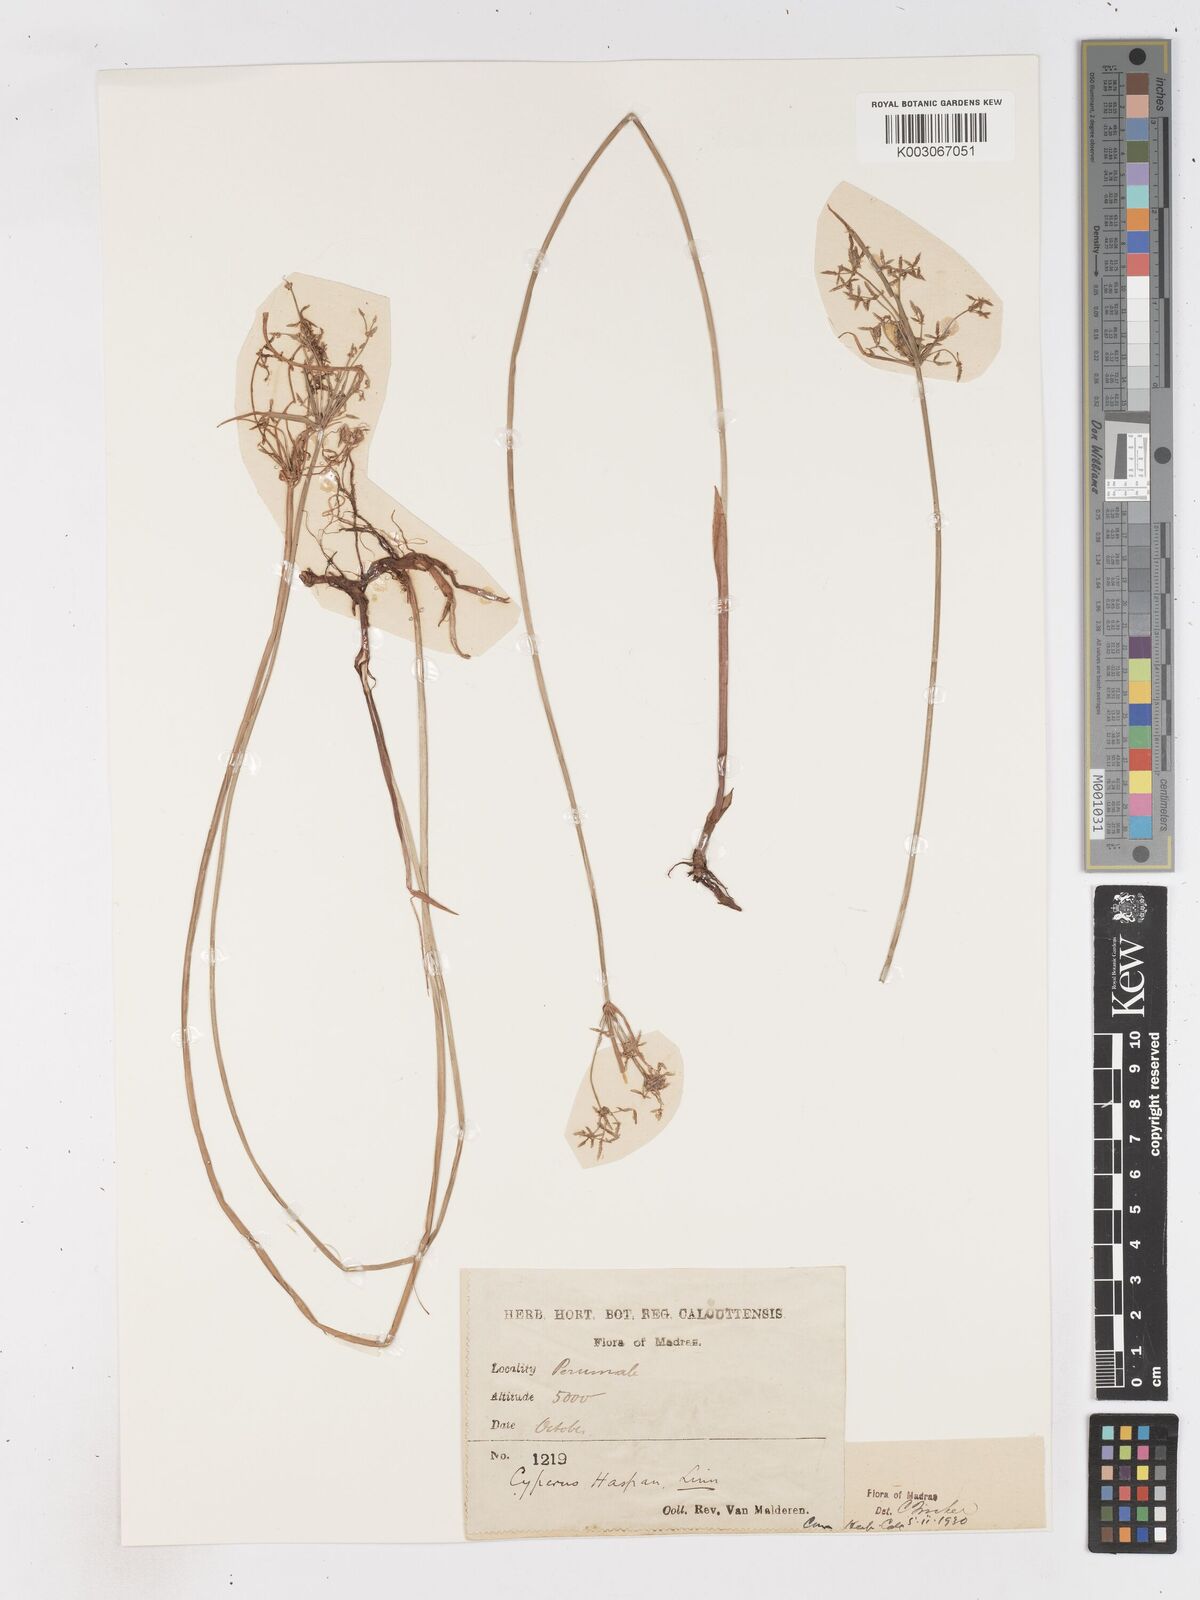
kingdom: Plantae
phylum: Tracheophyta
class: Liliopsida
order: Poales
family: Cyperaceae
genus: Cyperus
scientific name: Cyperus haspan
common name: Haspan flatsedge
